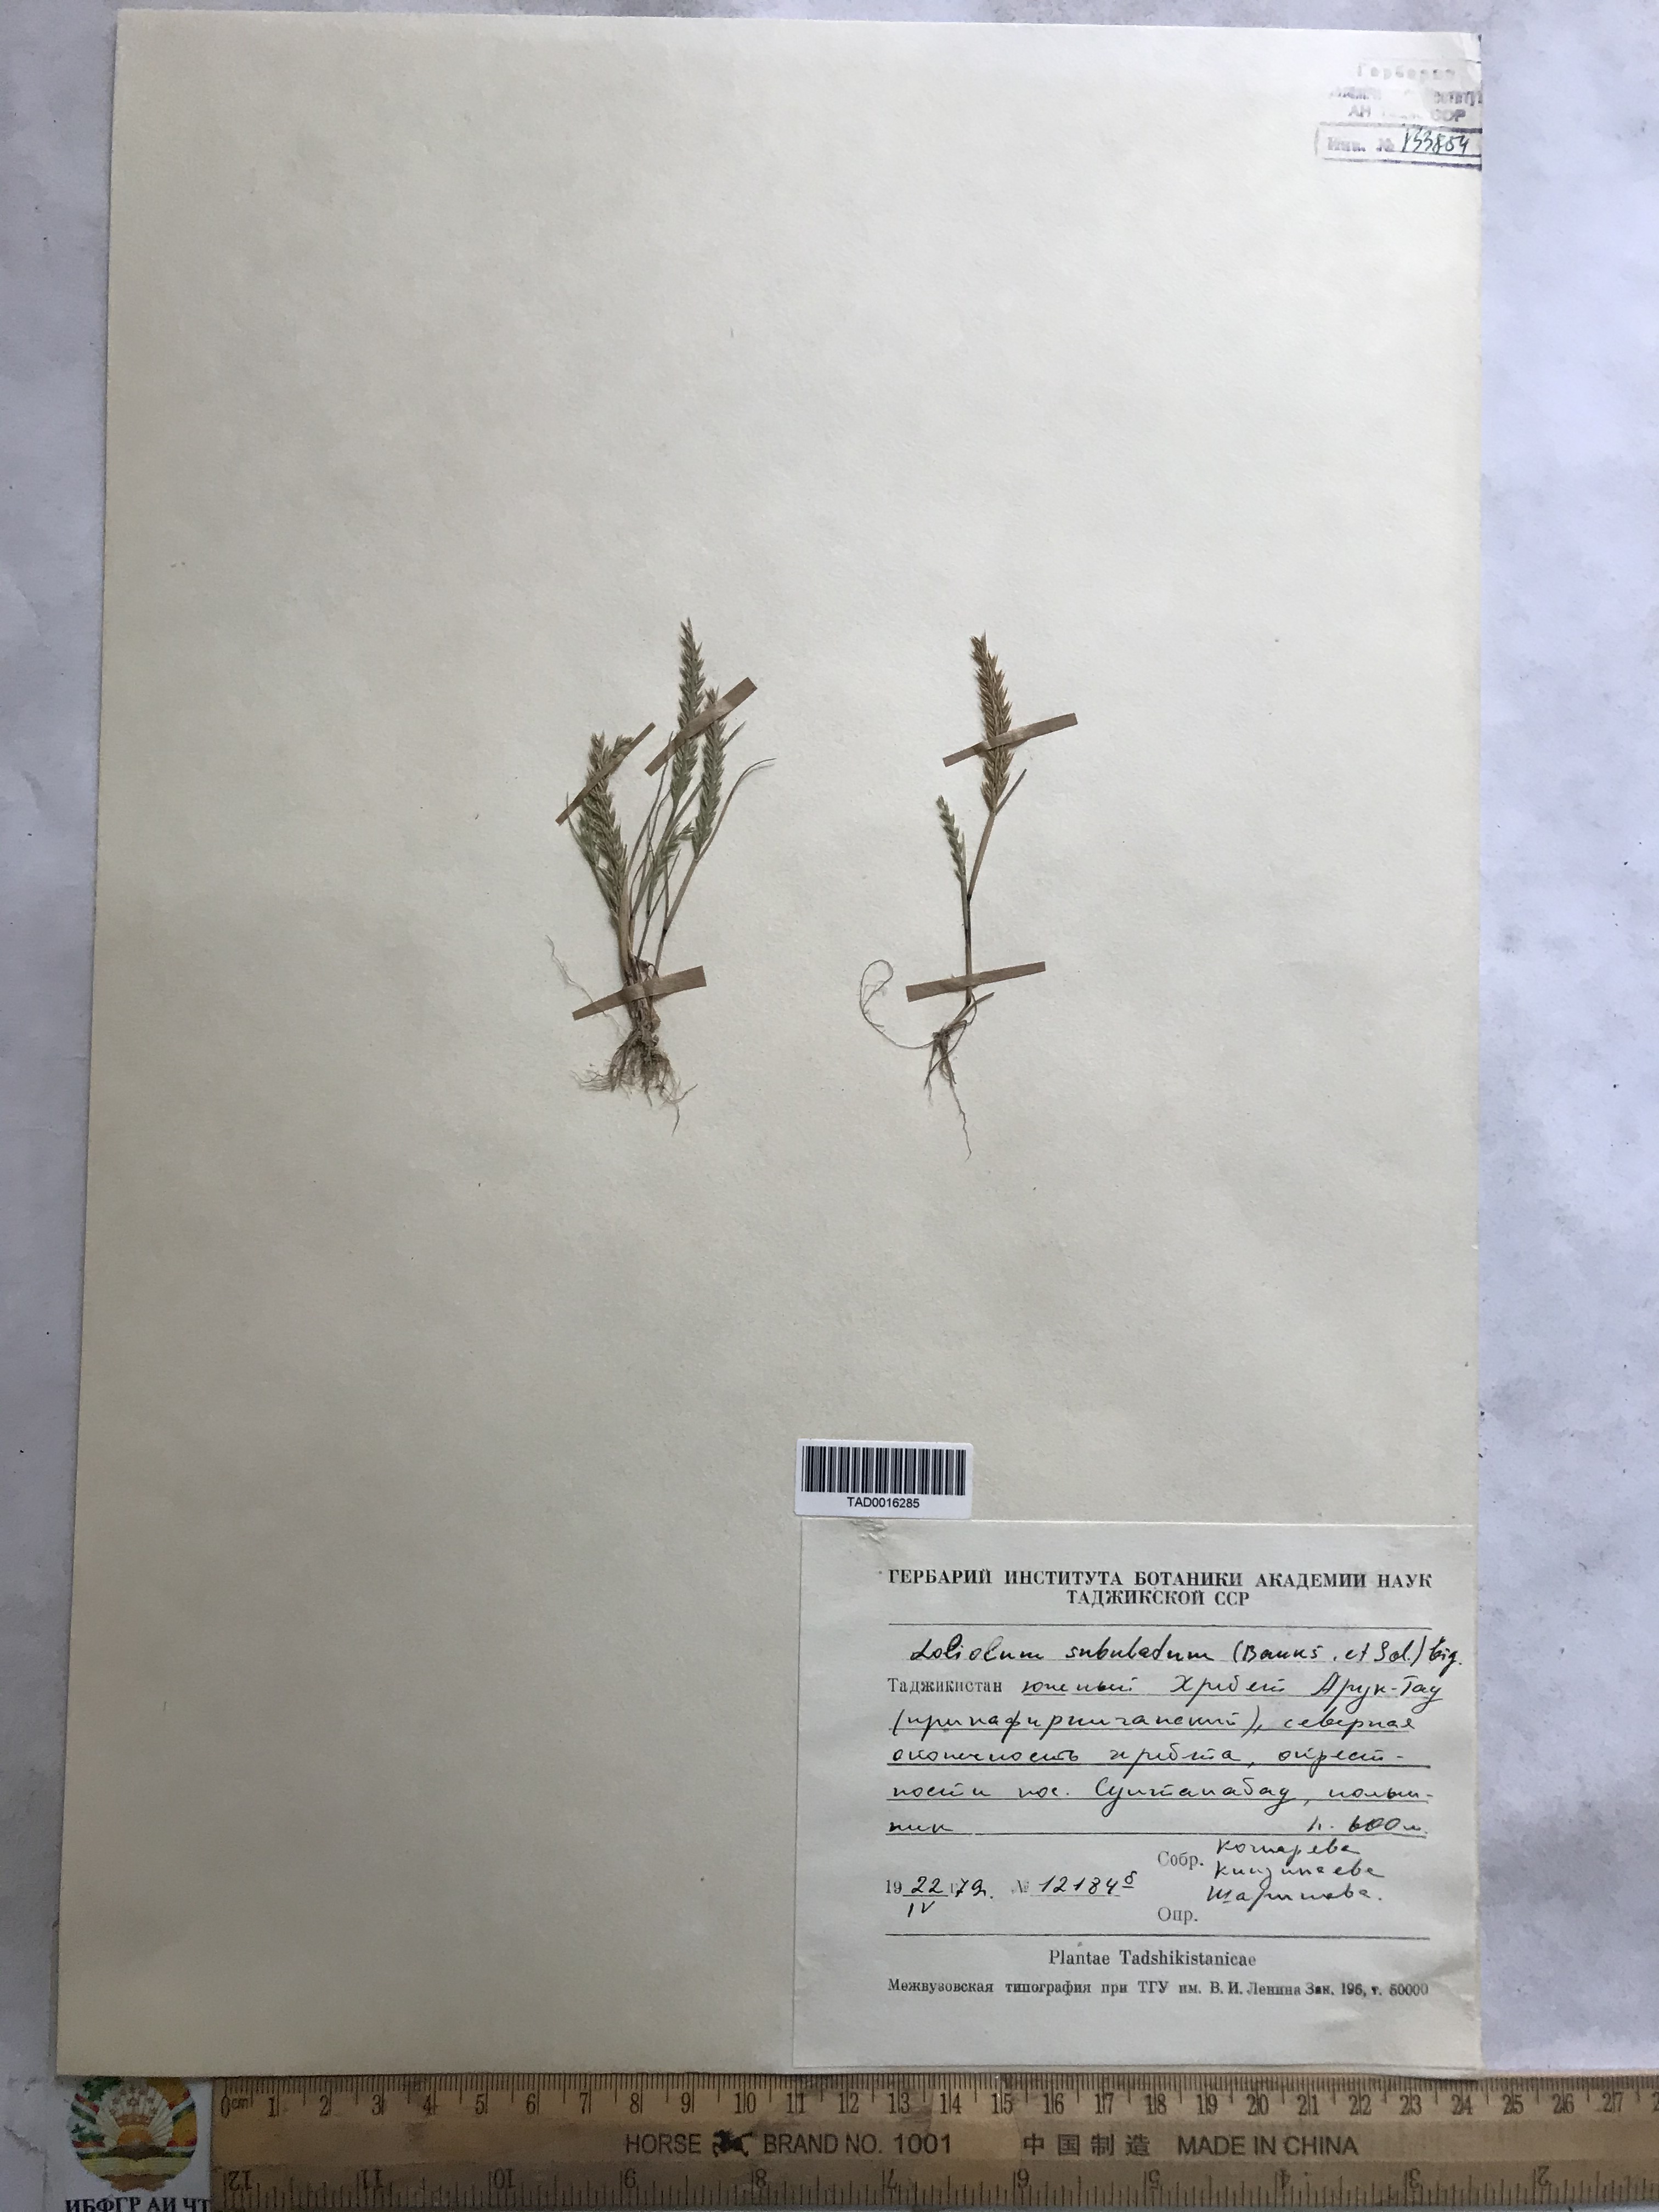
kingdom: Plantae
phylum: Tracheophyta
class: Liliopsida
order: Poales
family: Poaceae
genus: Festuca
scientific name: Festuca orientalis
